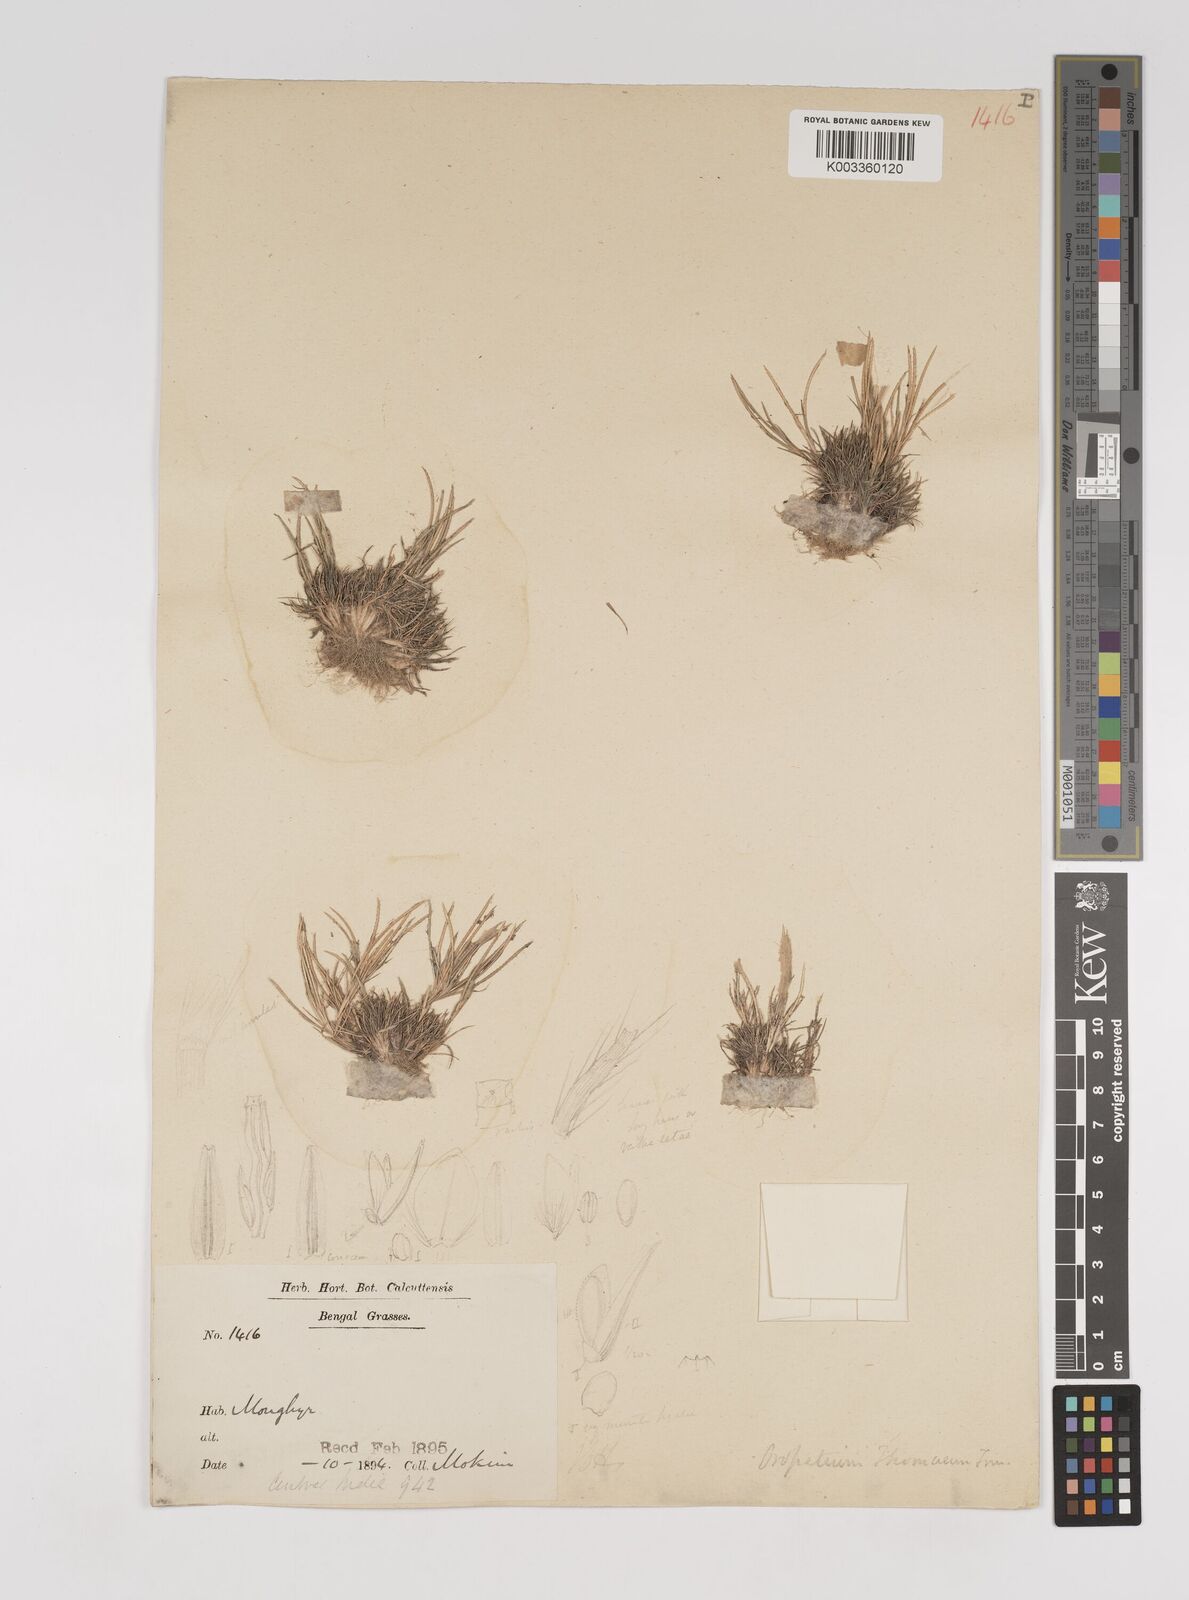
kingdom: Plantae
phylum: Tracheophyta
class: Liliopsida
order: Poales
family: Poaceae
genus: Oropetium
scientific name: Oropetium thomaeum
